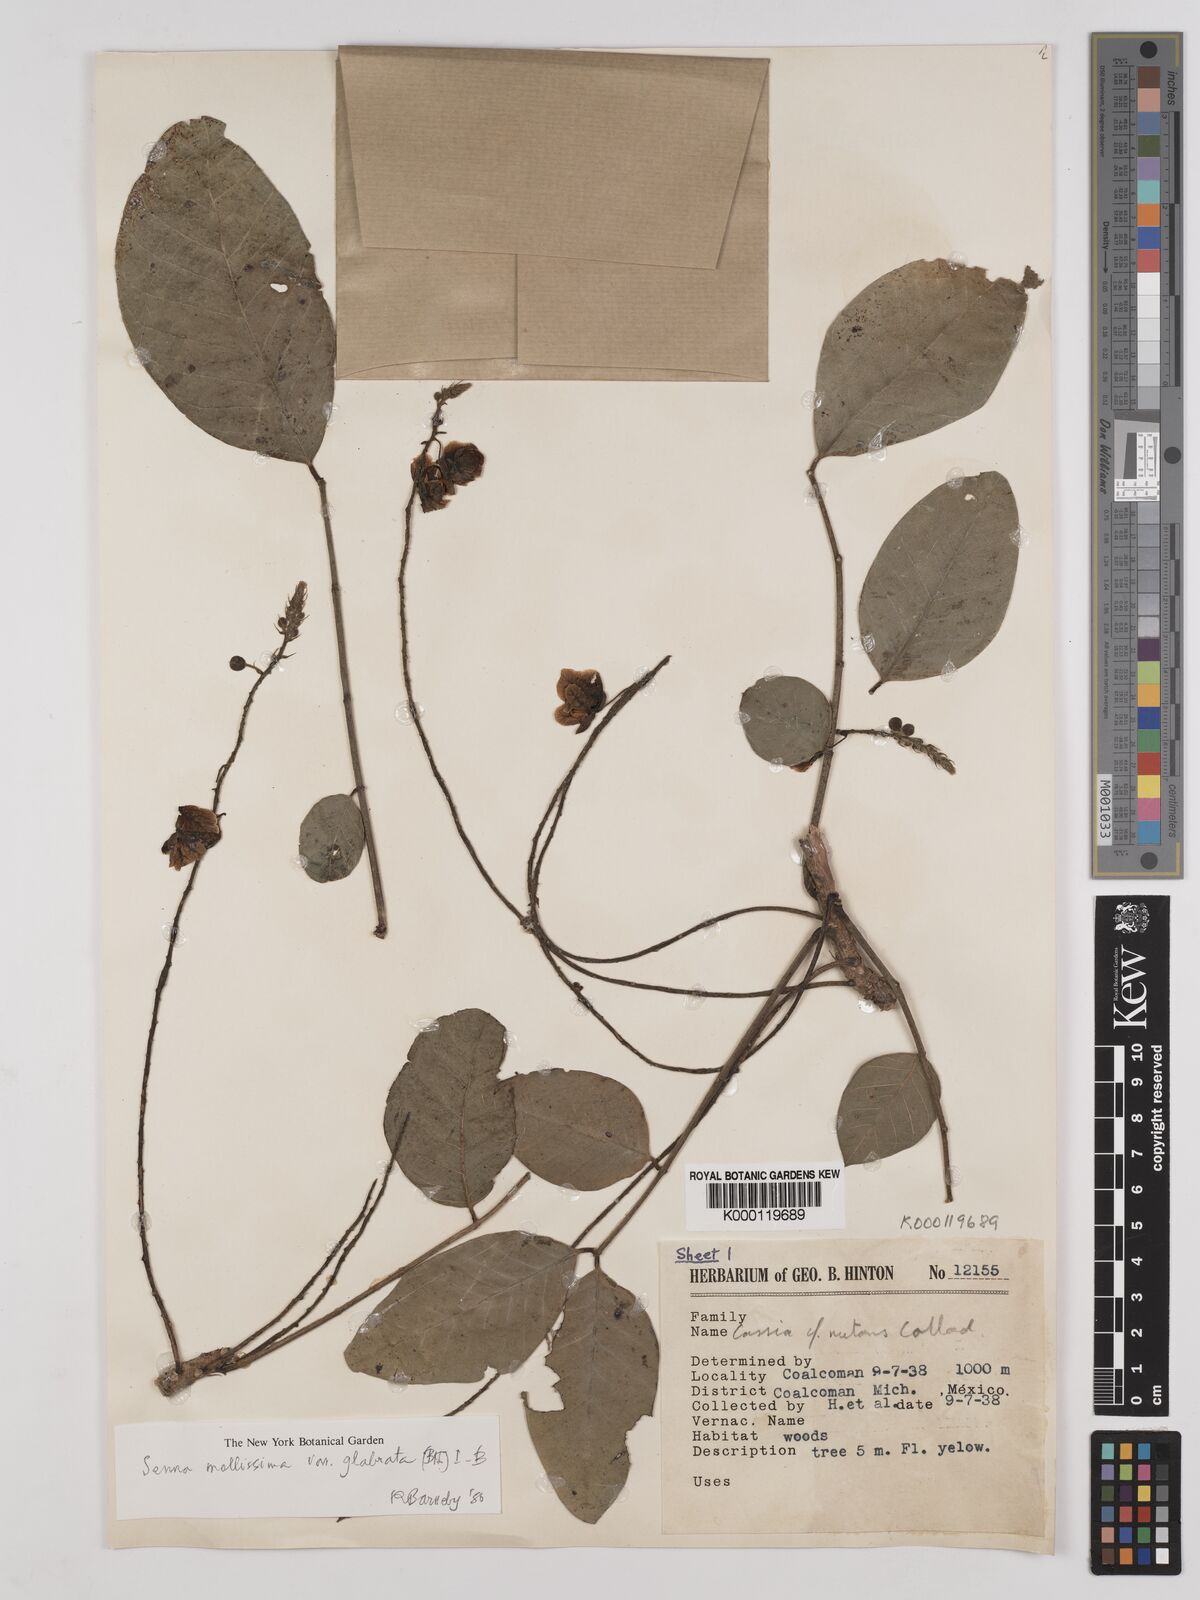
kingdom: Plantae
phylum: Tracheophyta
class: Magnoliopsida
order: Fabales
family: Fabaceae
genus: Senna
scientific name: Senna mollissima
